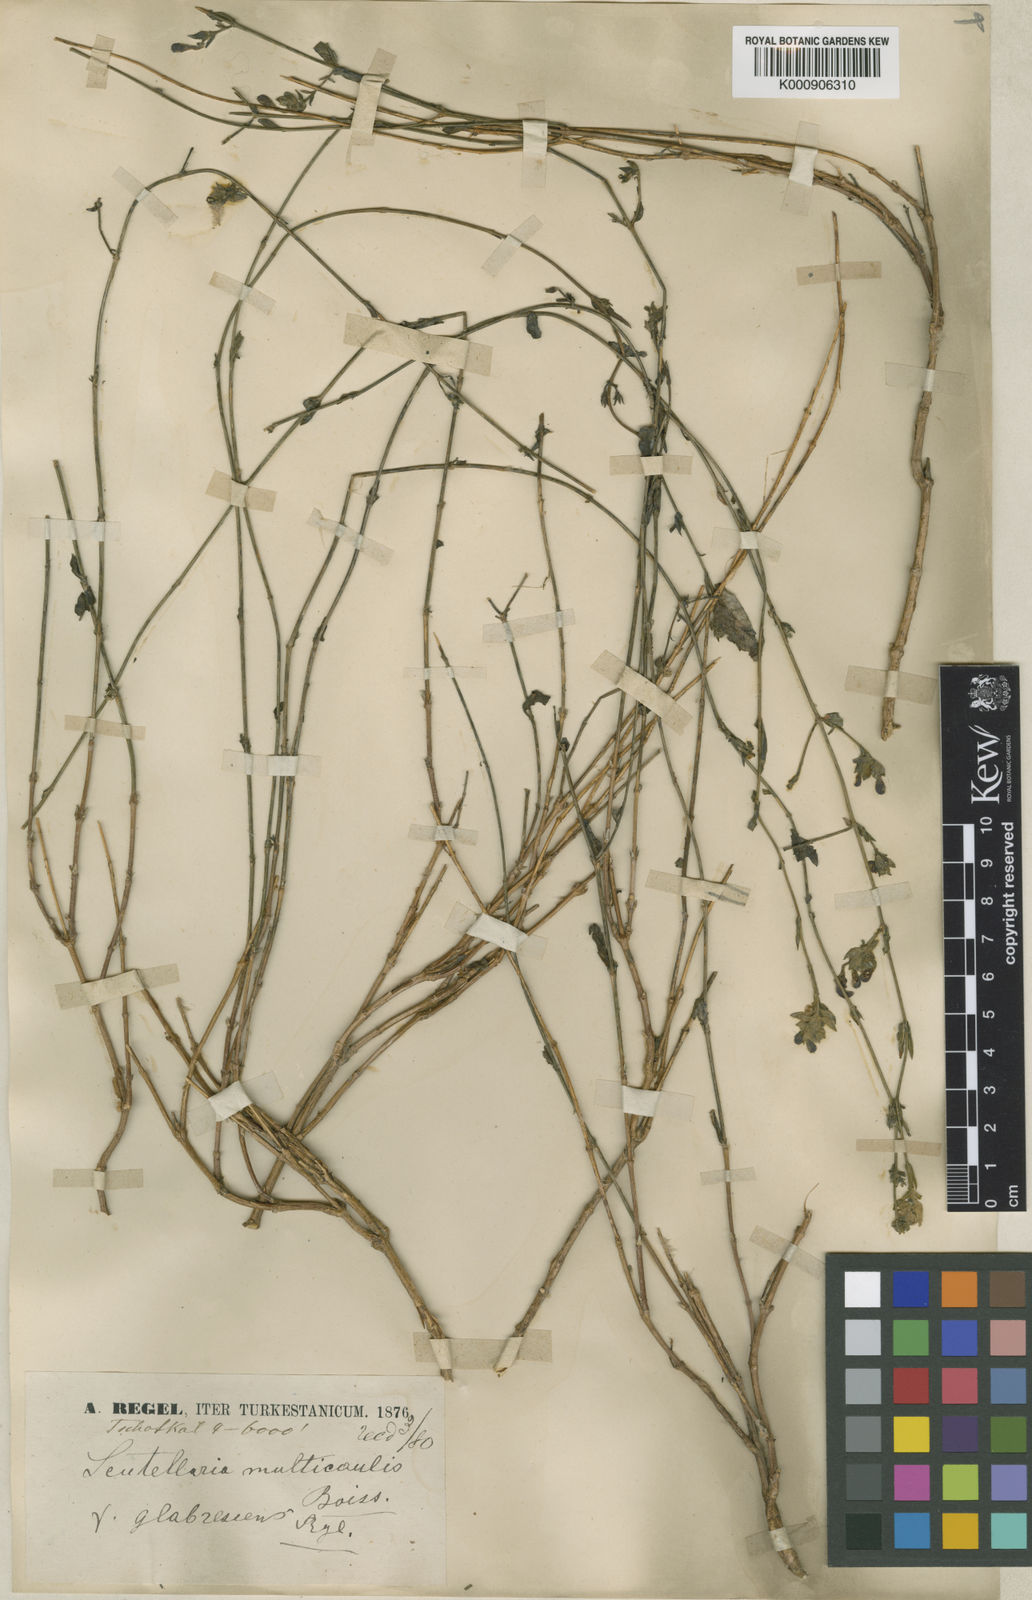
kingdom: Plantae
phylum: Tracheophyta
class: Magnoliopsida
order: Lamiales
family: Lamiaceae
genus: Scutellaria
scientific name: Scutellaria ramosissima
